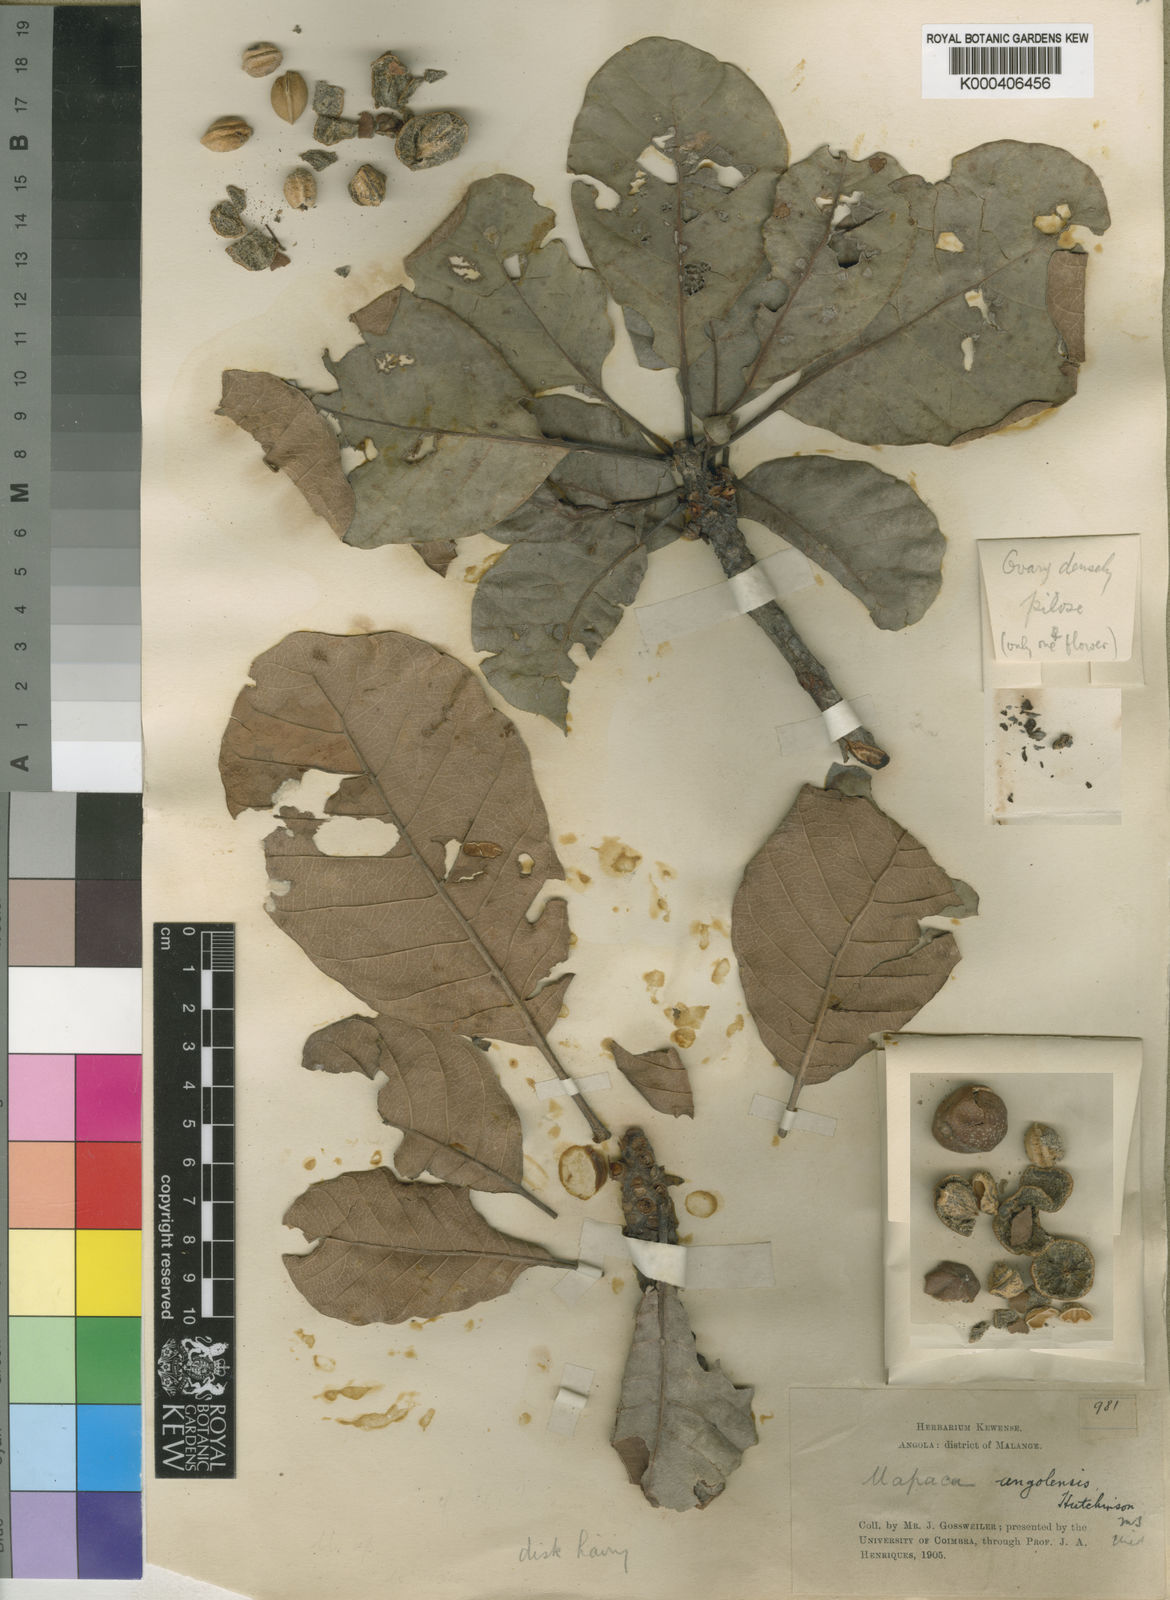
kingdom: Plantae
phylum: Tracheophyta
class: Magnoliopsida
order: Malpighiales
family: Phyllanthaceae
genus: Uapaca
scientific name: Uapaca kirkiana
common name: Wild loquat
